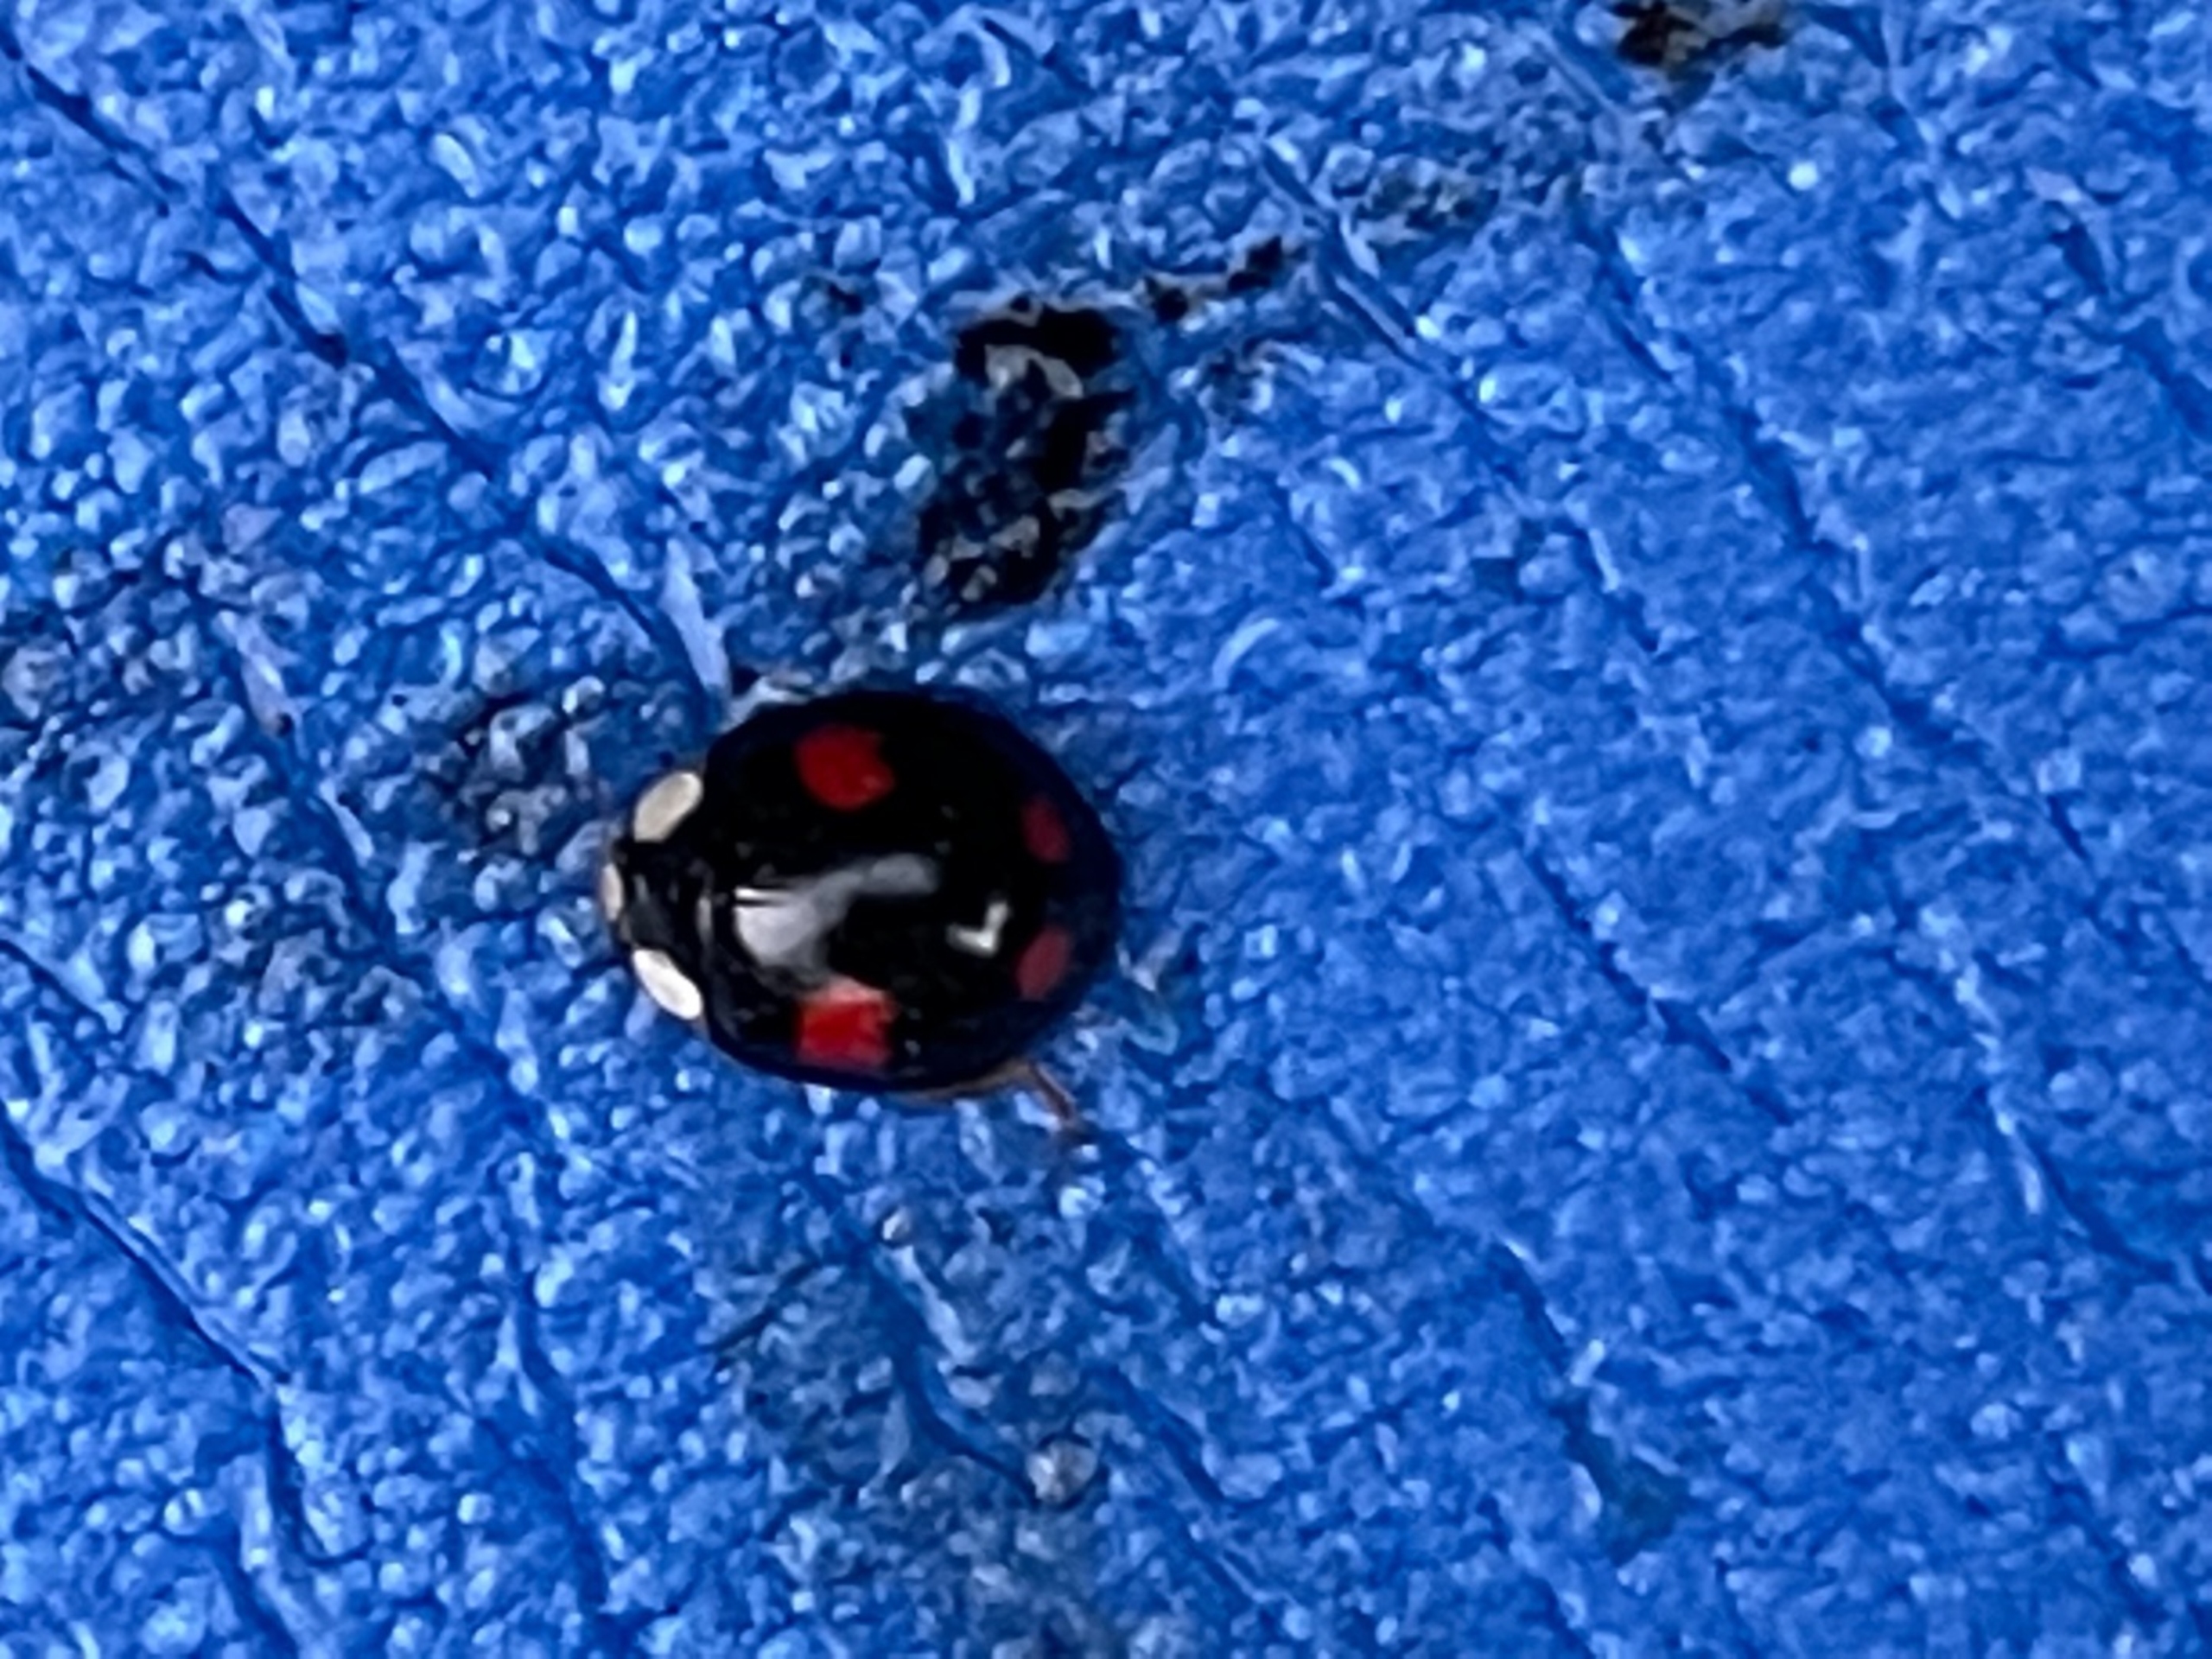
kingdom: Animalia
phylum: Arthropoda
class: Insecta
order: Coleoptera
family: Coccinellidae
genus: Harmonia
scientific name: Harmonia axyridis
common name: Harlekinmariehøne
